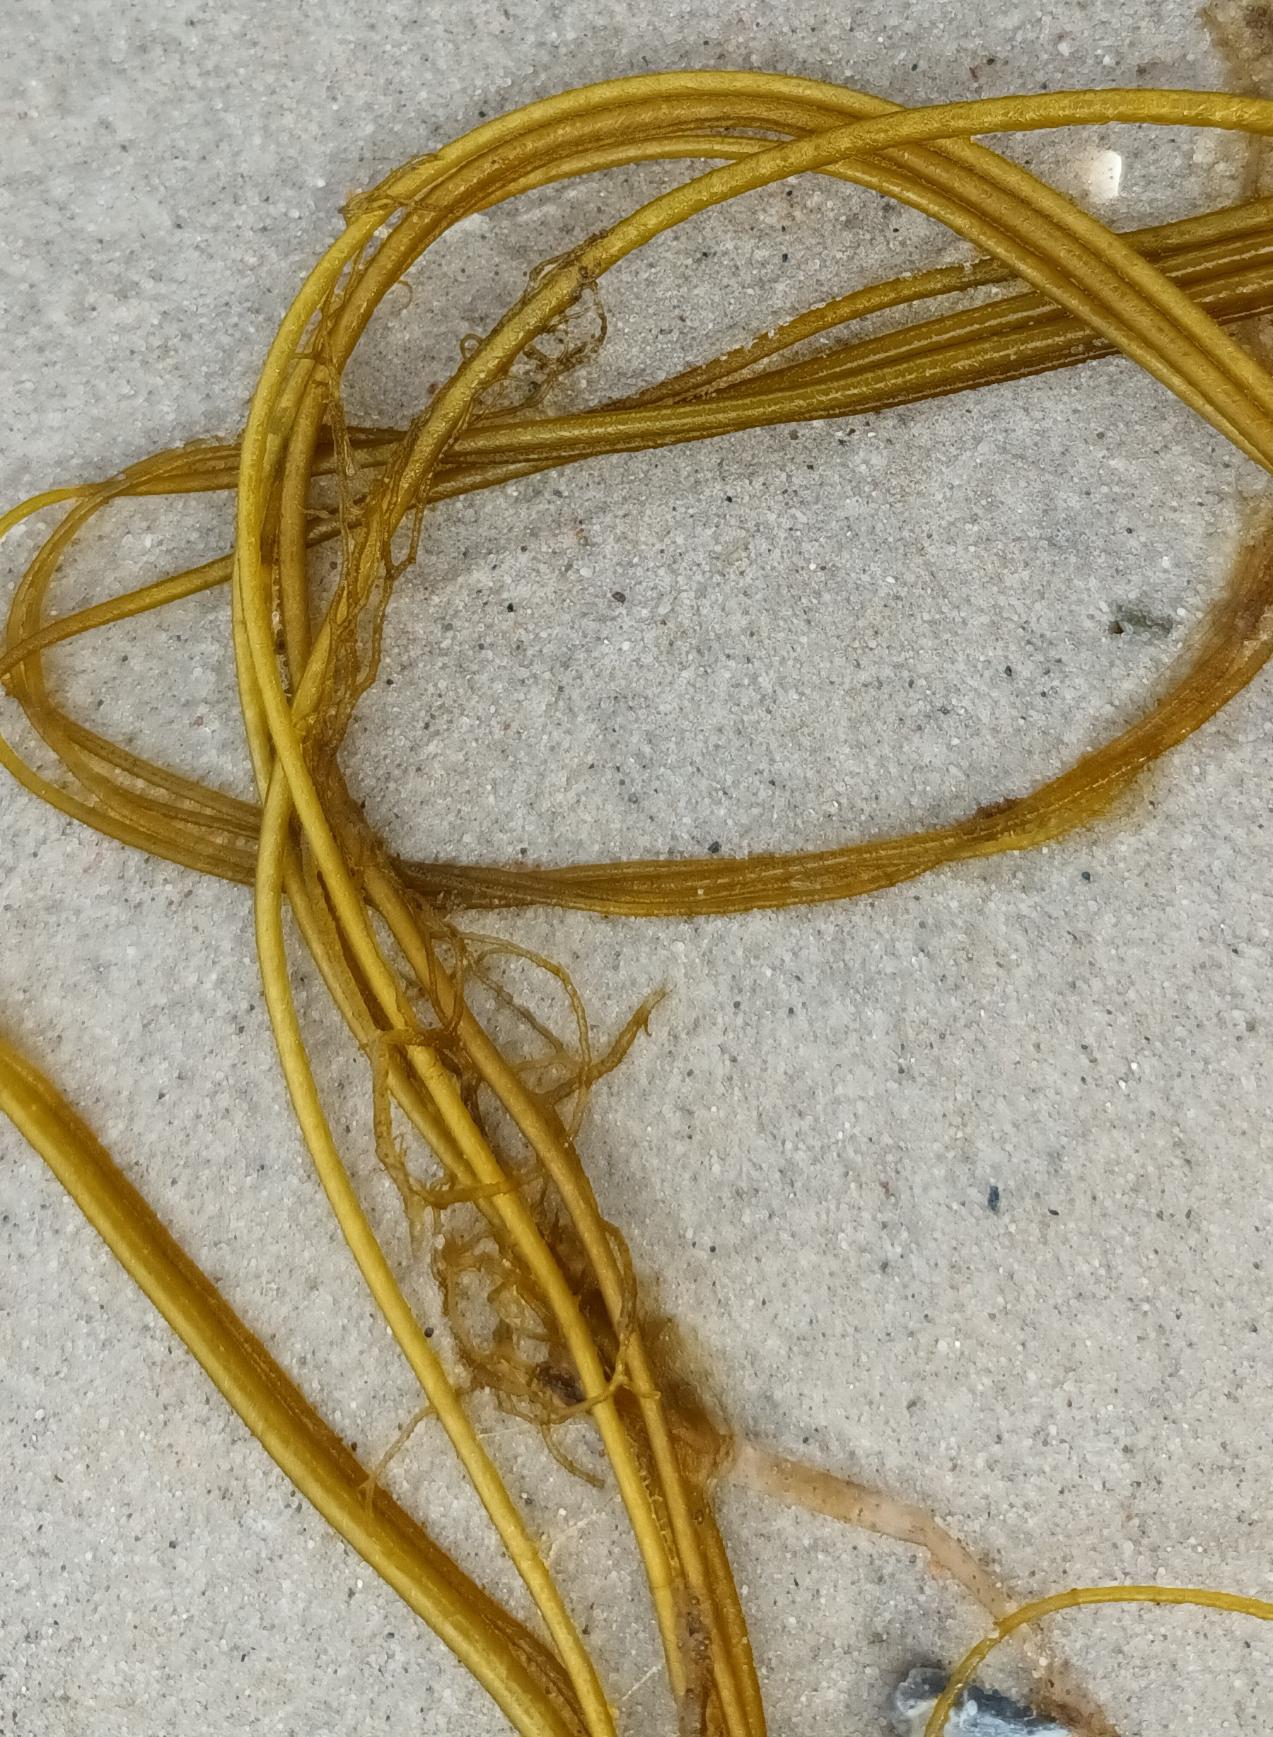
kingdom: Chromista
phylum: Ochrophyta
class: Phaeophyceae
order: Laminariales
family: Chordaceae
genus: Chorda
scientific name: Chorda filum
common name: Strengetang
